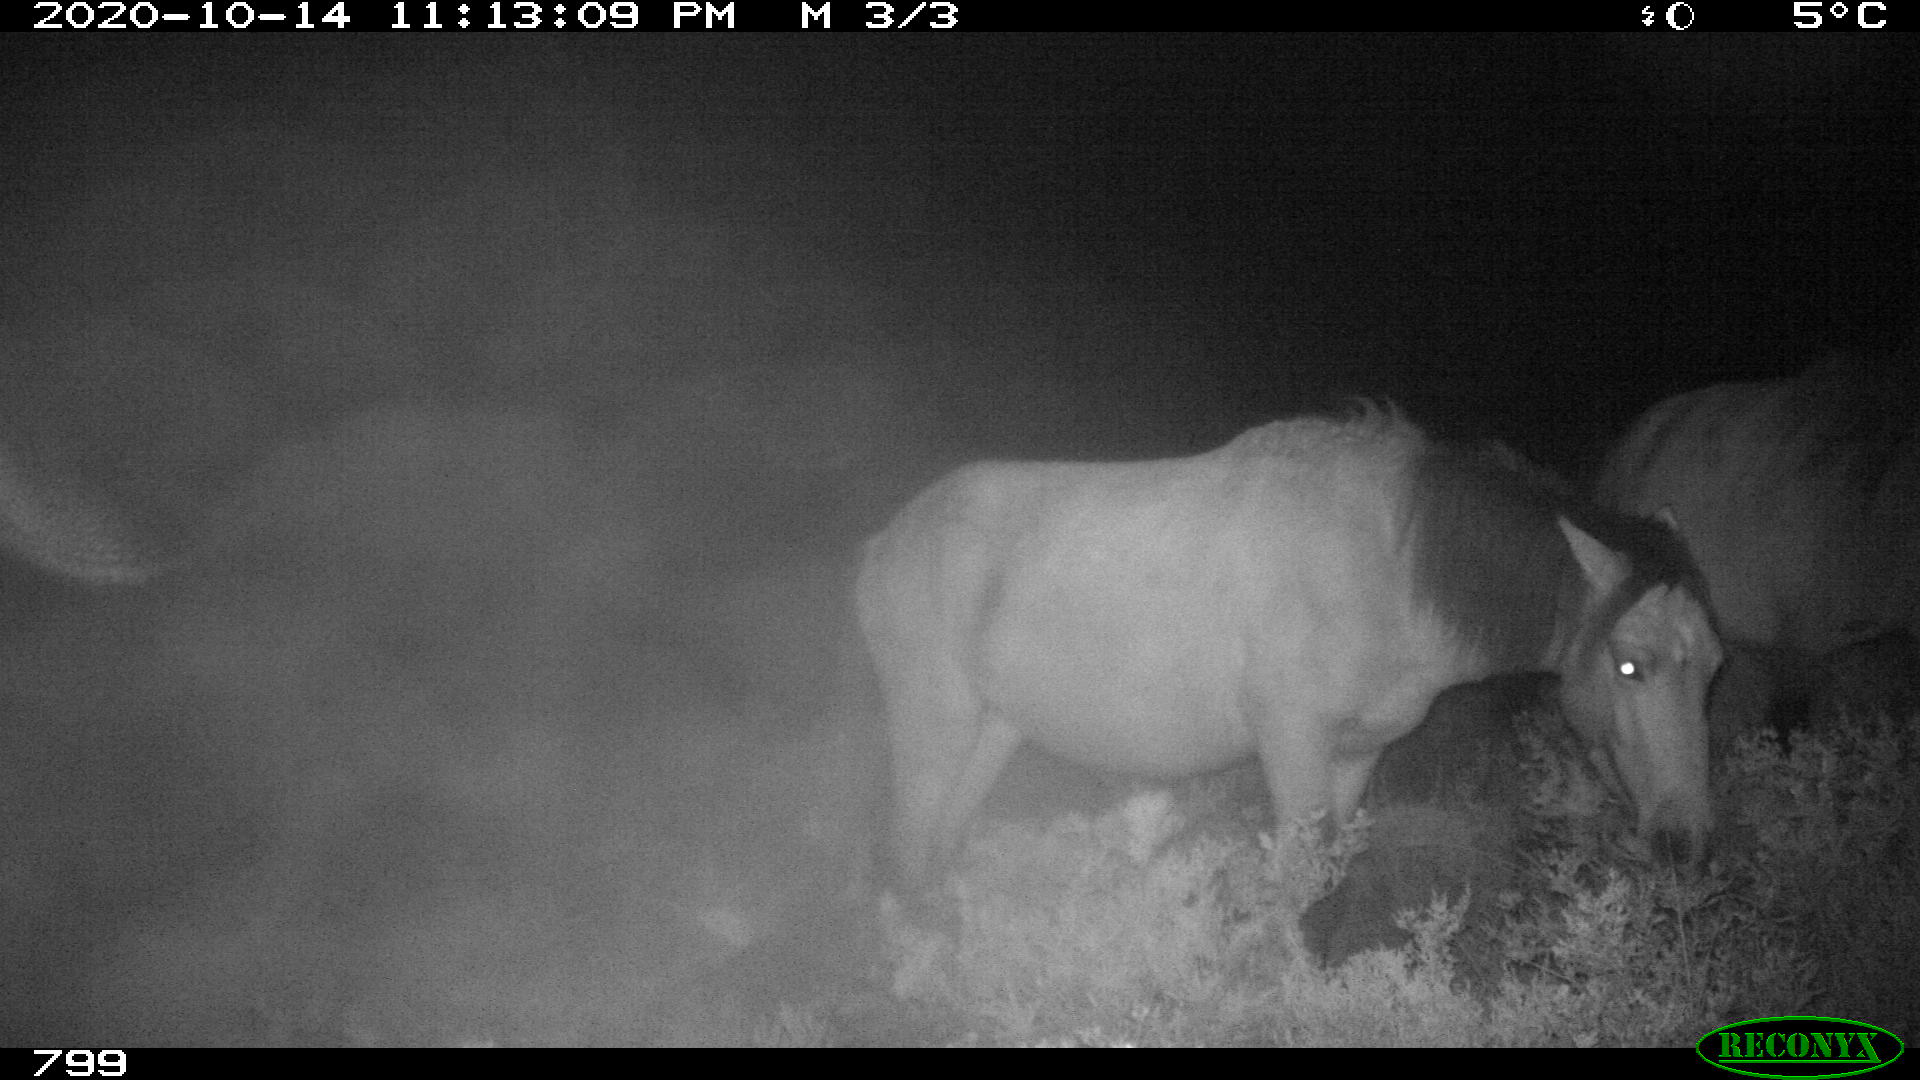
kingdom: Animalia
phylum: Chordata
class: Mammalia
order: Perissodactyla
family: Equidae
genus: Equus
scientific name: Equus caballus
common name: Horse
